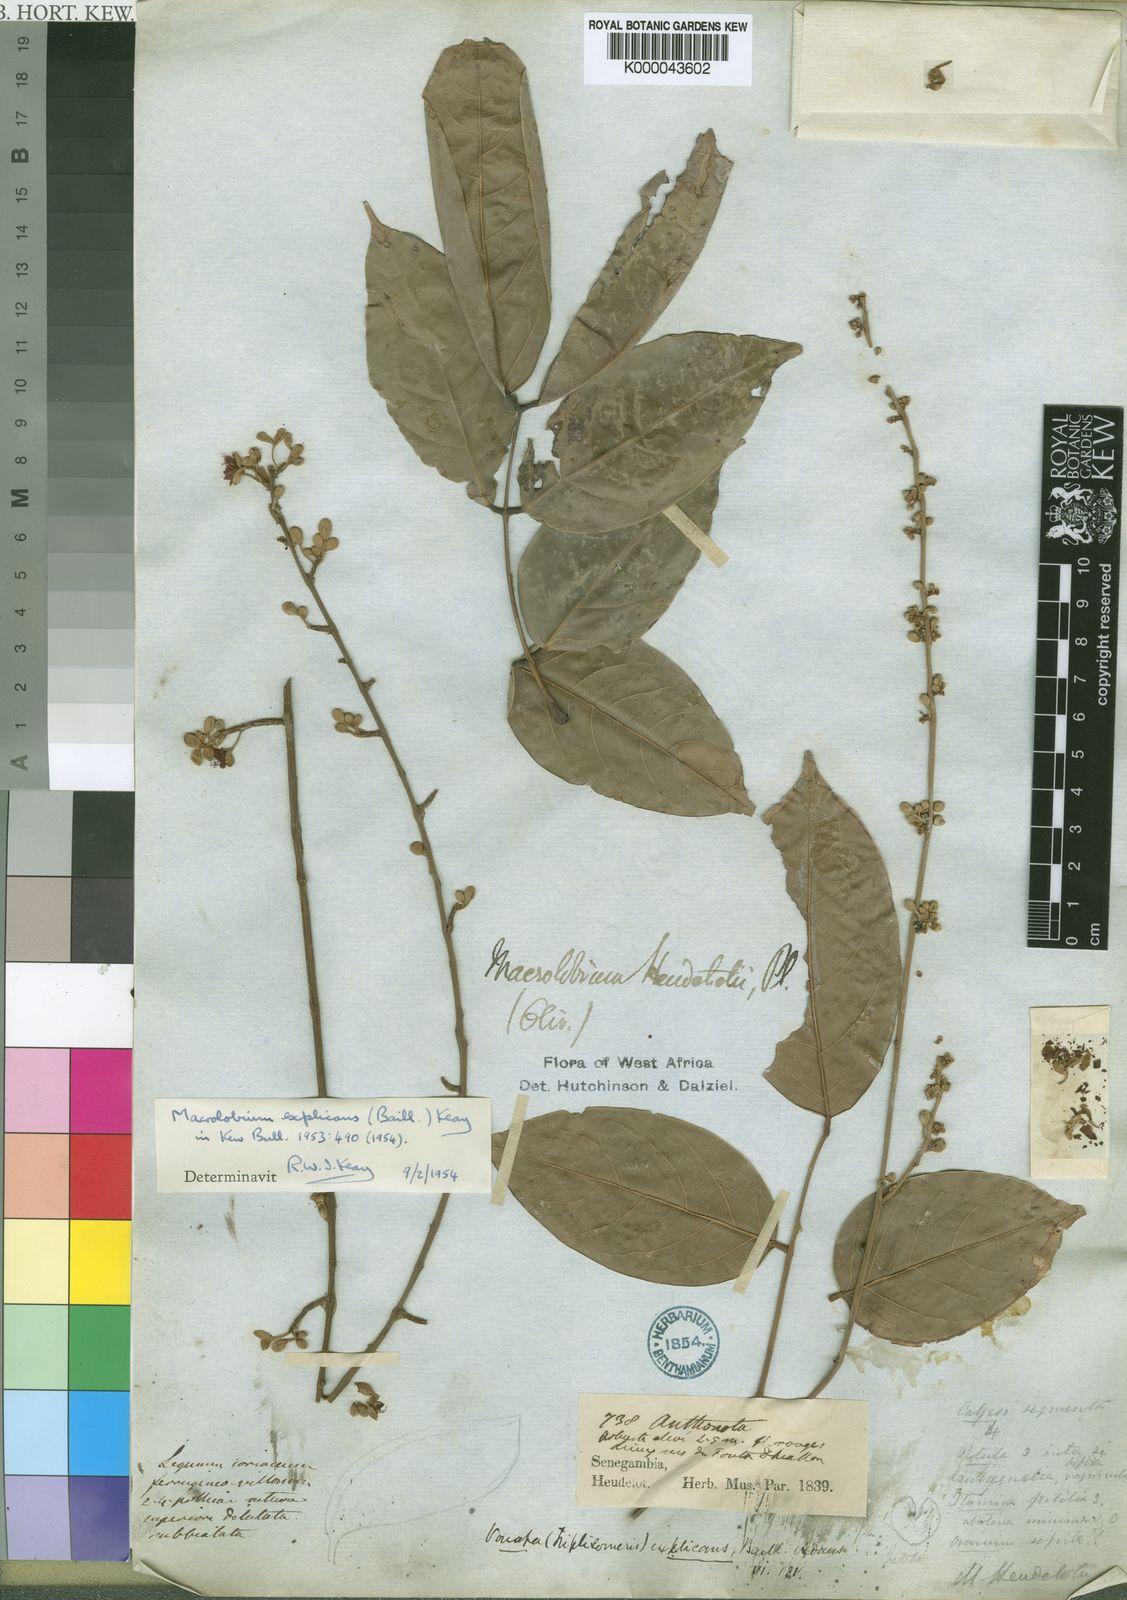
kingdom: Plantae
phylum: Tracheophyta
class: Magnoliopsida
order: Fabales
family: Fabaceae
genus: Englerodendron
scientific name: Englerodendron explicans
